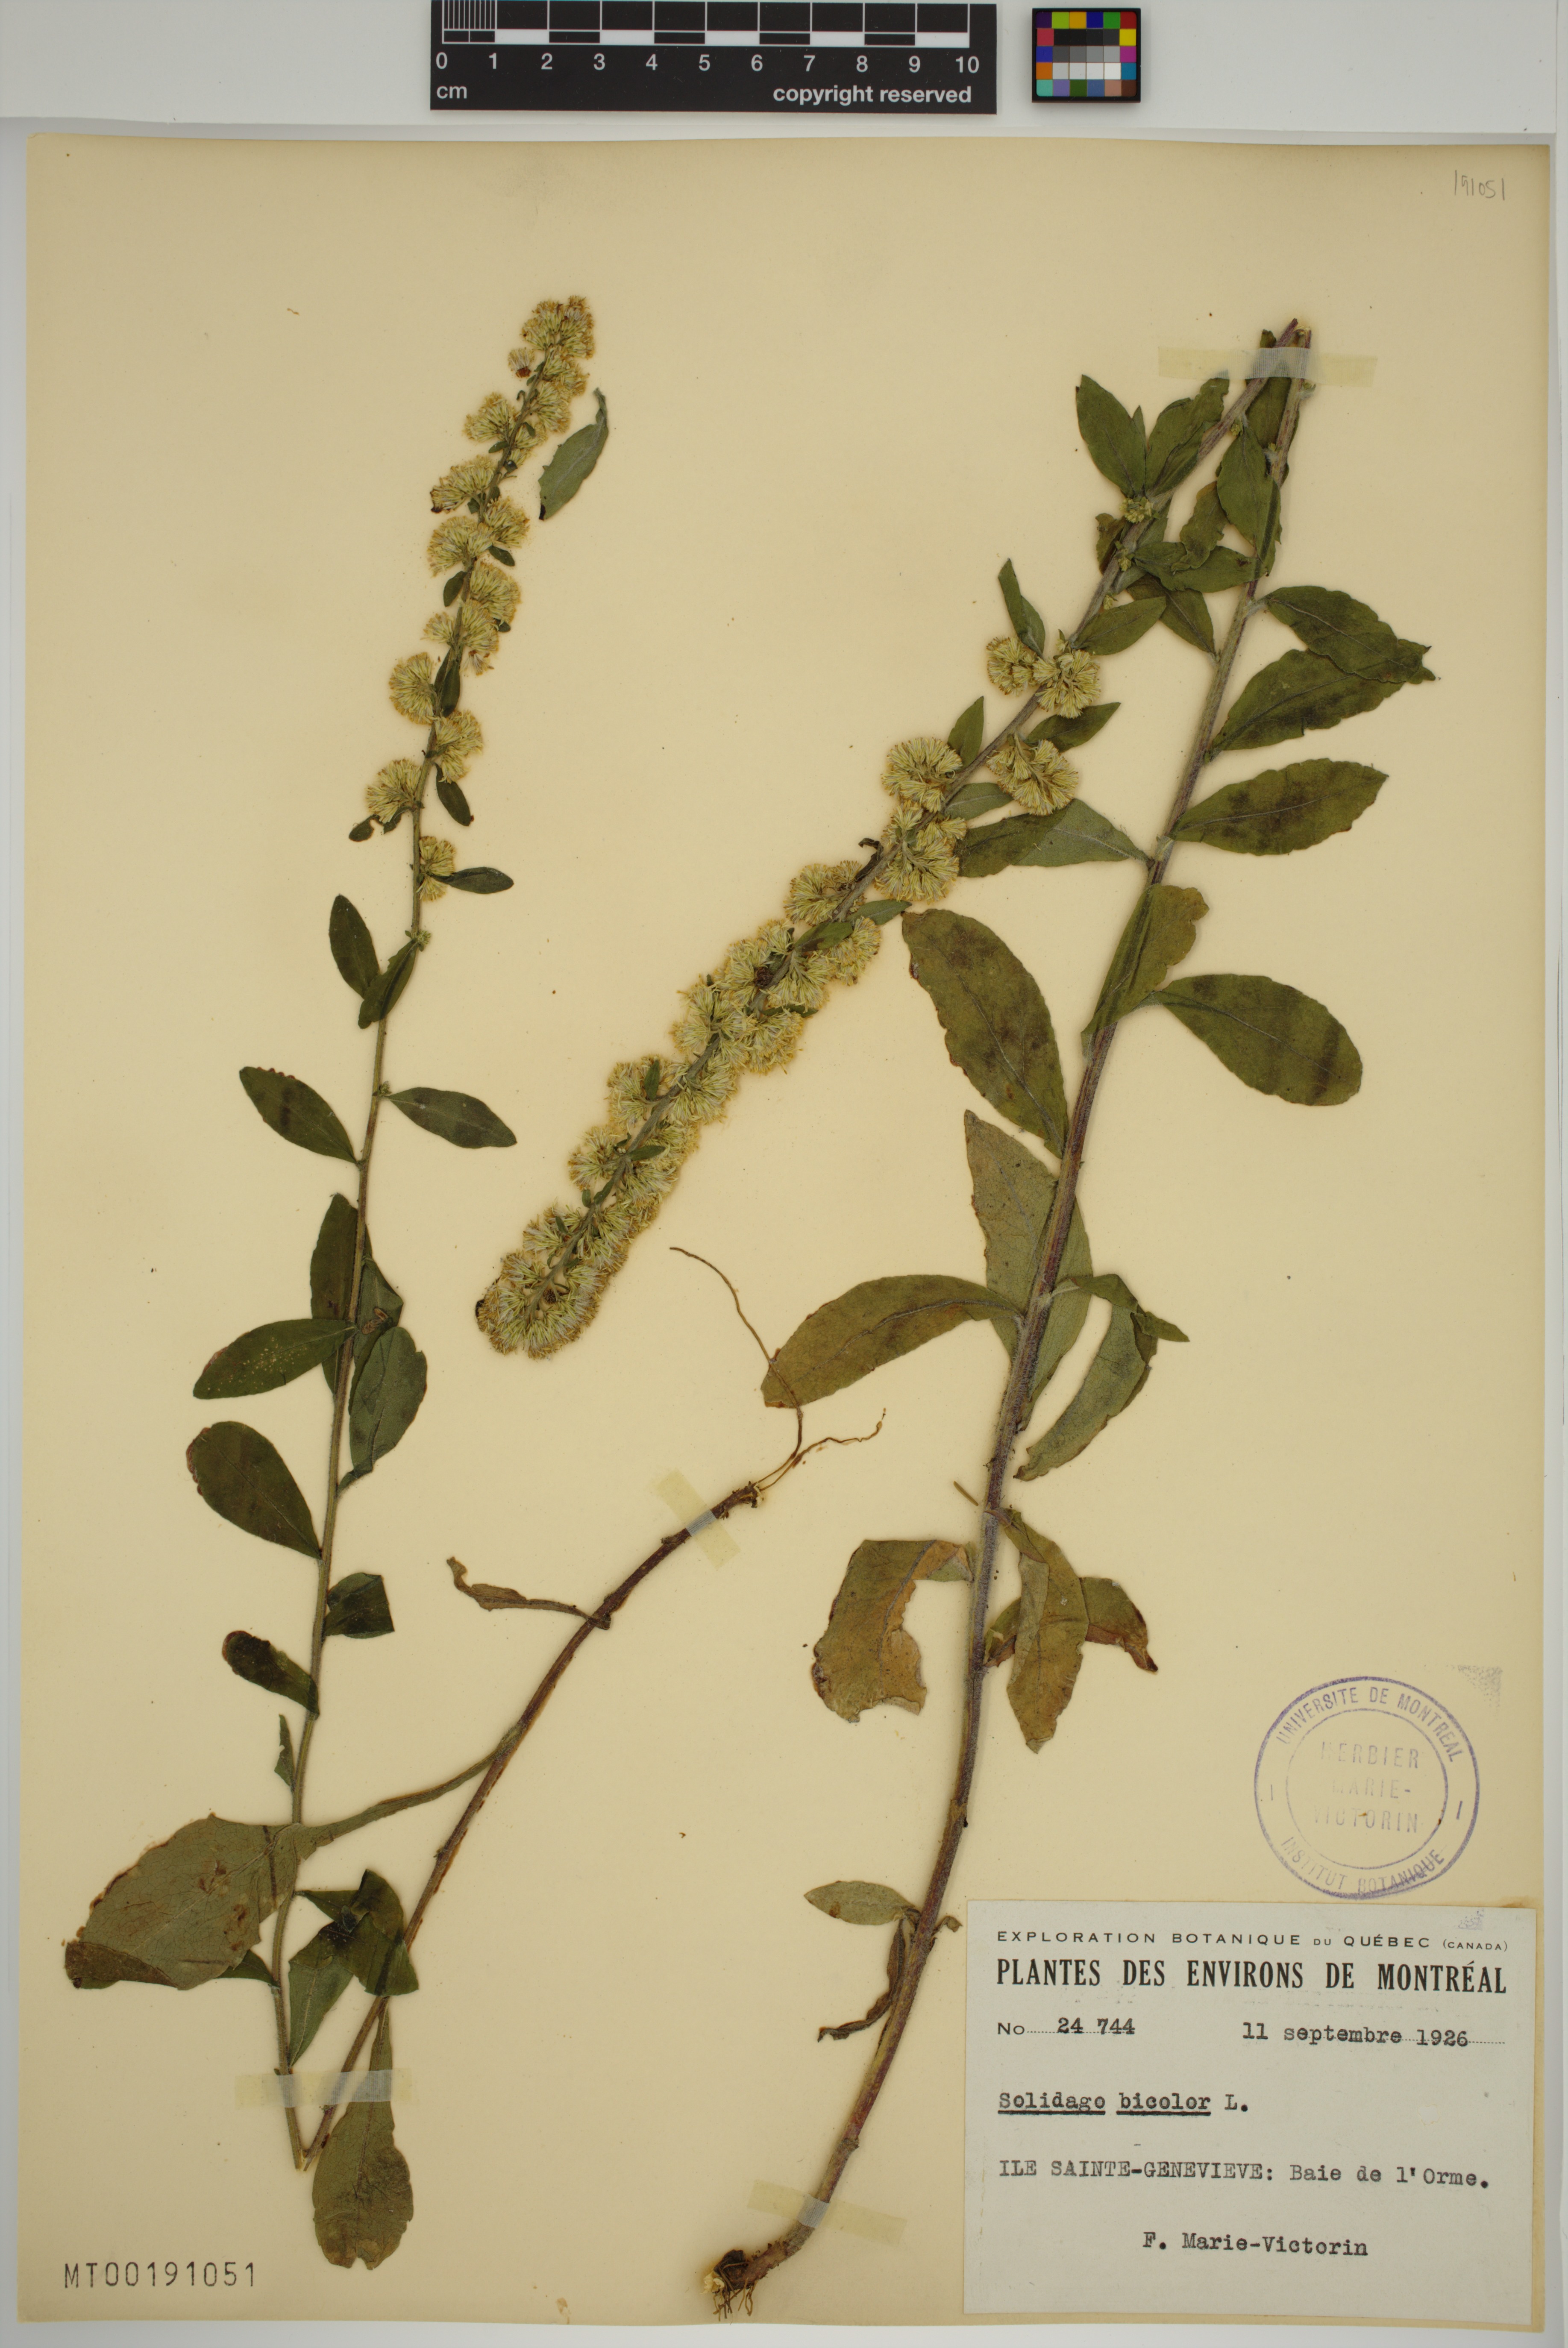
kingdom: Plantae
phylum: Tracheophyta
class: Magnoliopsida
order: Asterales
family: Asteraceae
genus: Solidago
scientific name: Solidago bicolor
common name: Silverrod
